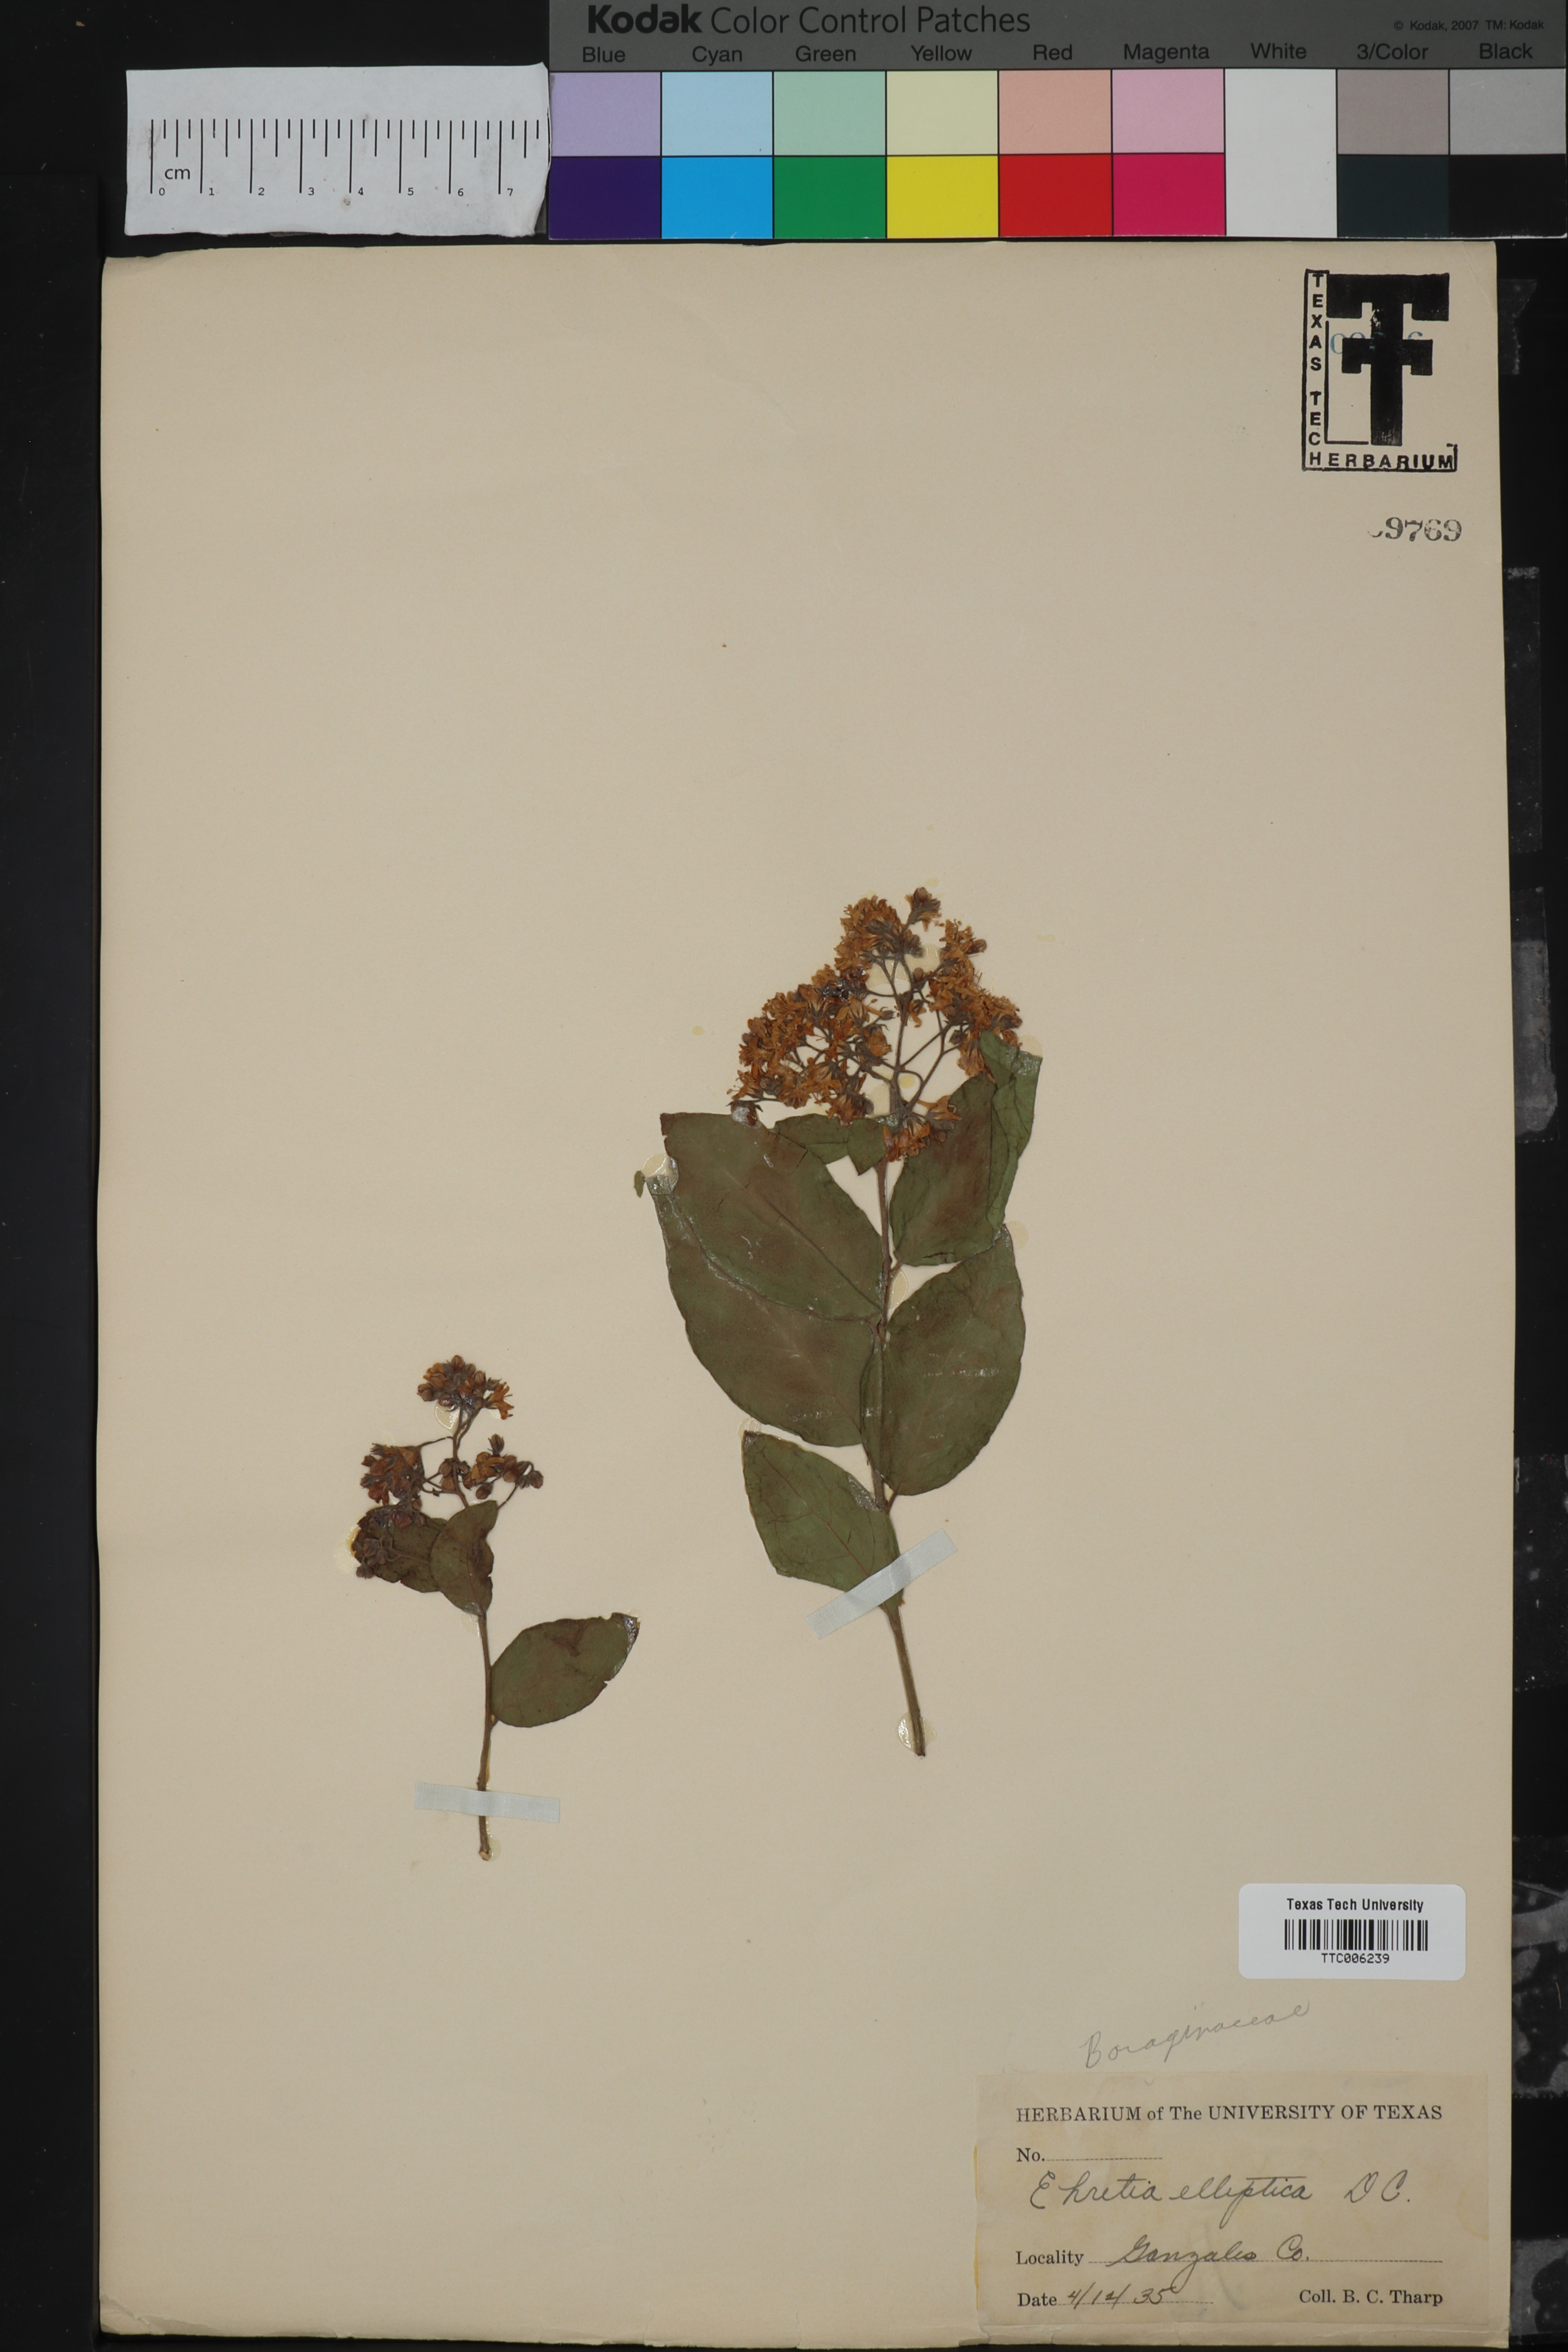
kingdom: Plantae
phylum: Tracheophyta
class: Magnoliopsida
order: Boraginales
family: Ehretiaceae
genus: Ehretia
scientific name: Ehretia anacua
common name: Sugarberry
